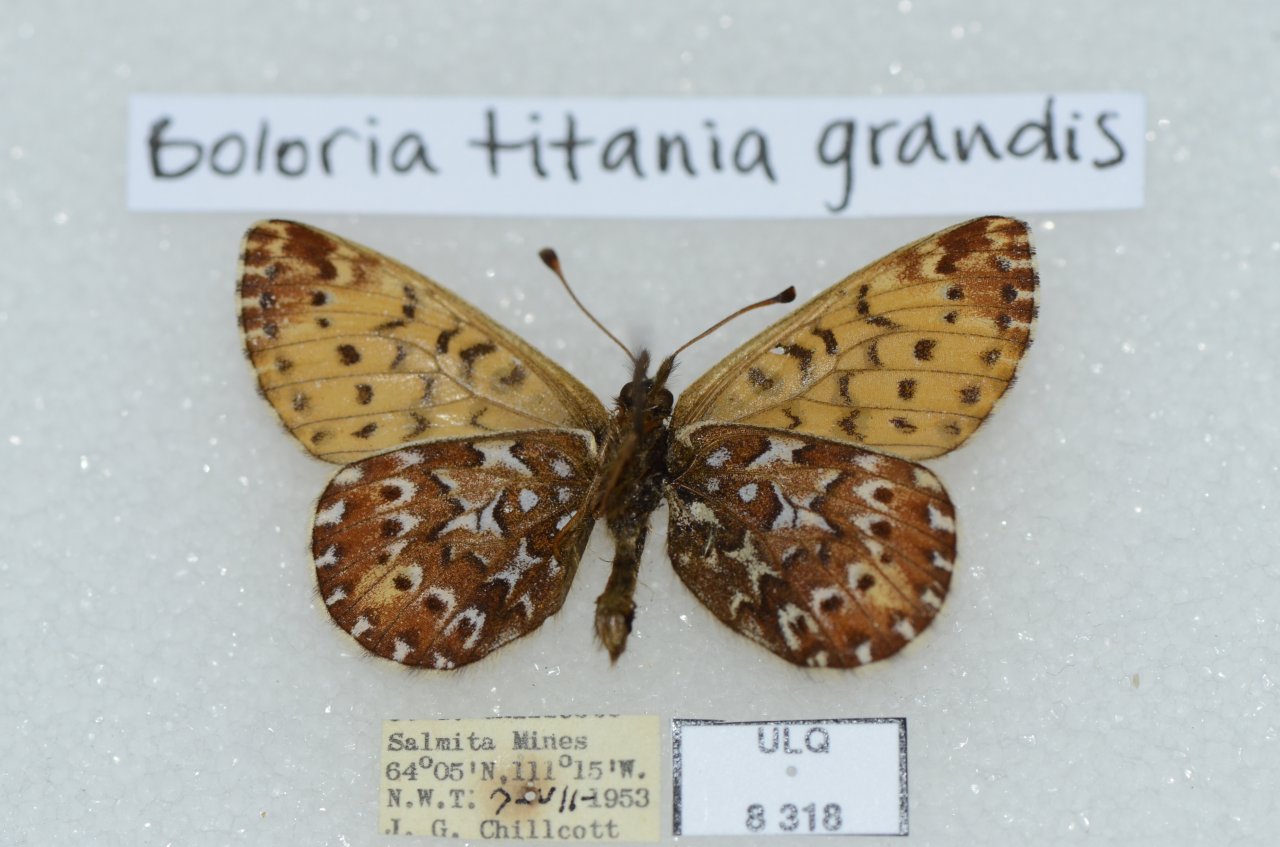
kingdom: Animalia
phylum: Arthropoda
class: Insecta
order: Lepidoptera
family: Nymphalidae
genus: Boloria
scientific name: Boloria chariclea
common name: Arctic Fritillary
